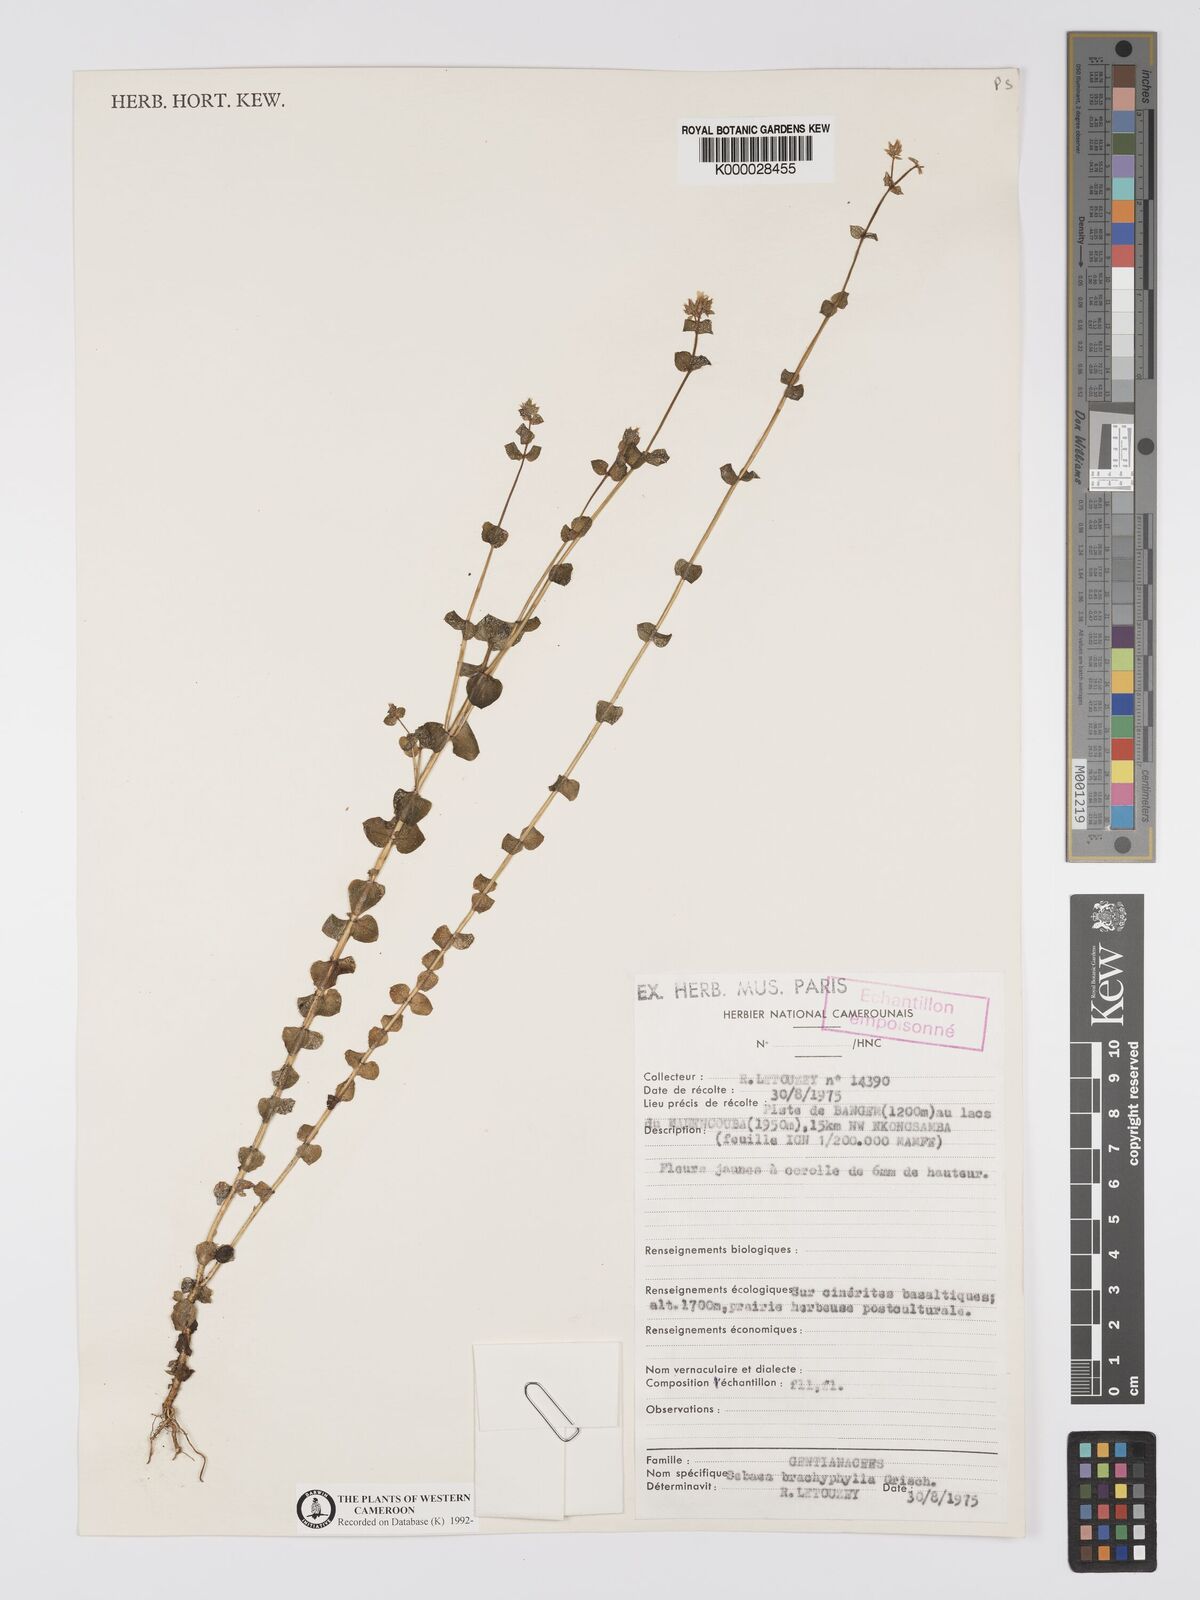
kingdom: Plantae
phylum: Tracheophyta
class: Magnoliopsida
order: Gentianales
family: Gentianaceae
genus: Sebaea
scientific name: Sebaea brachyphylla
